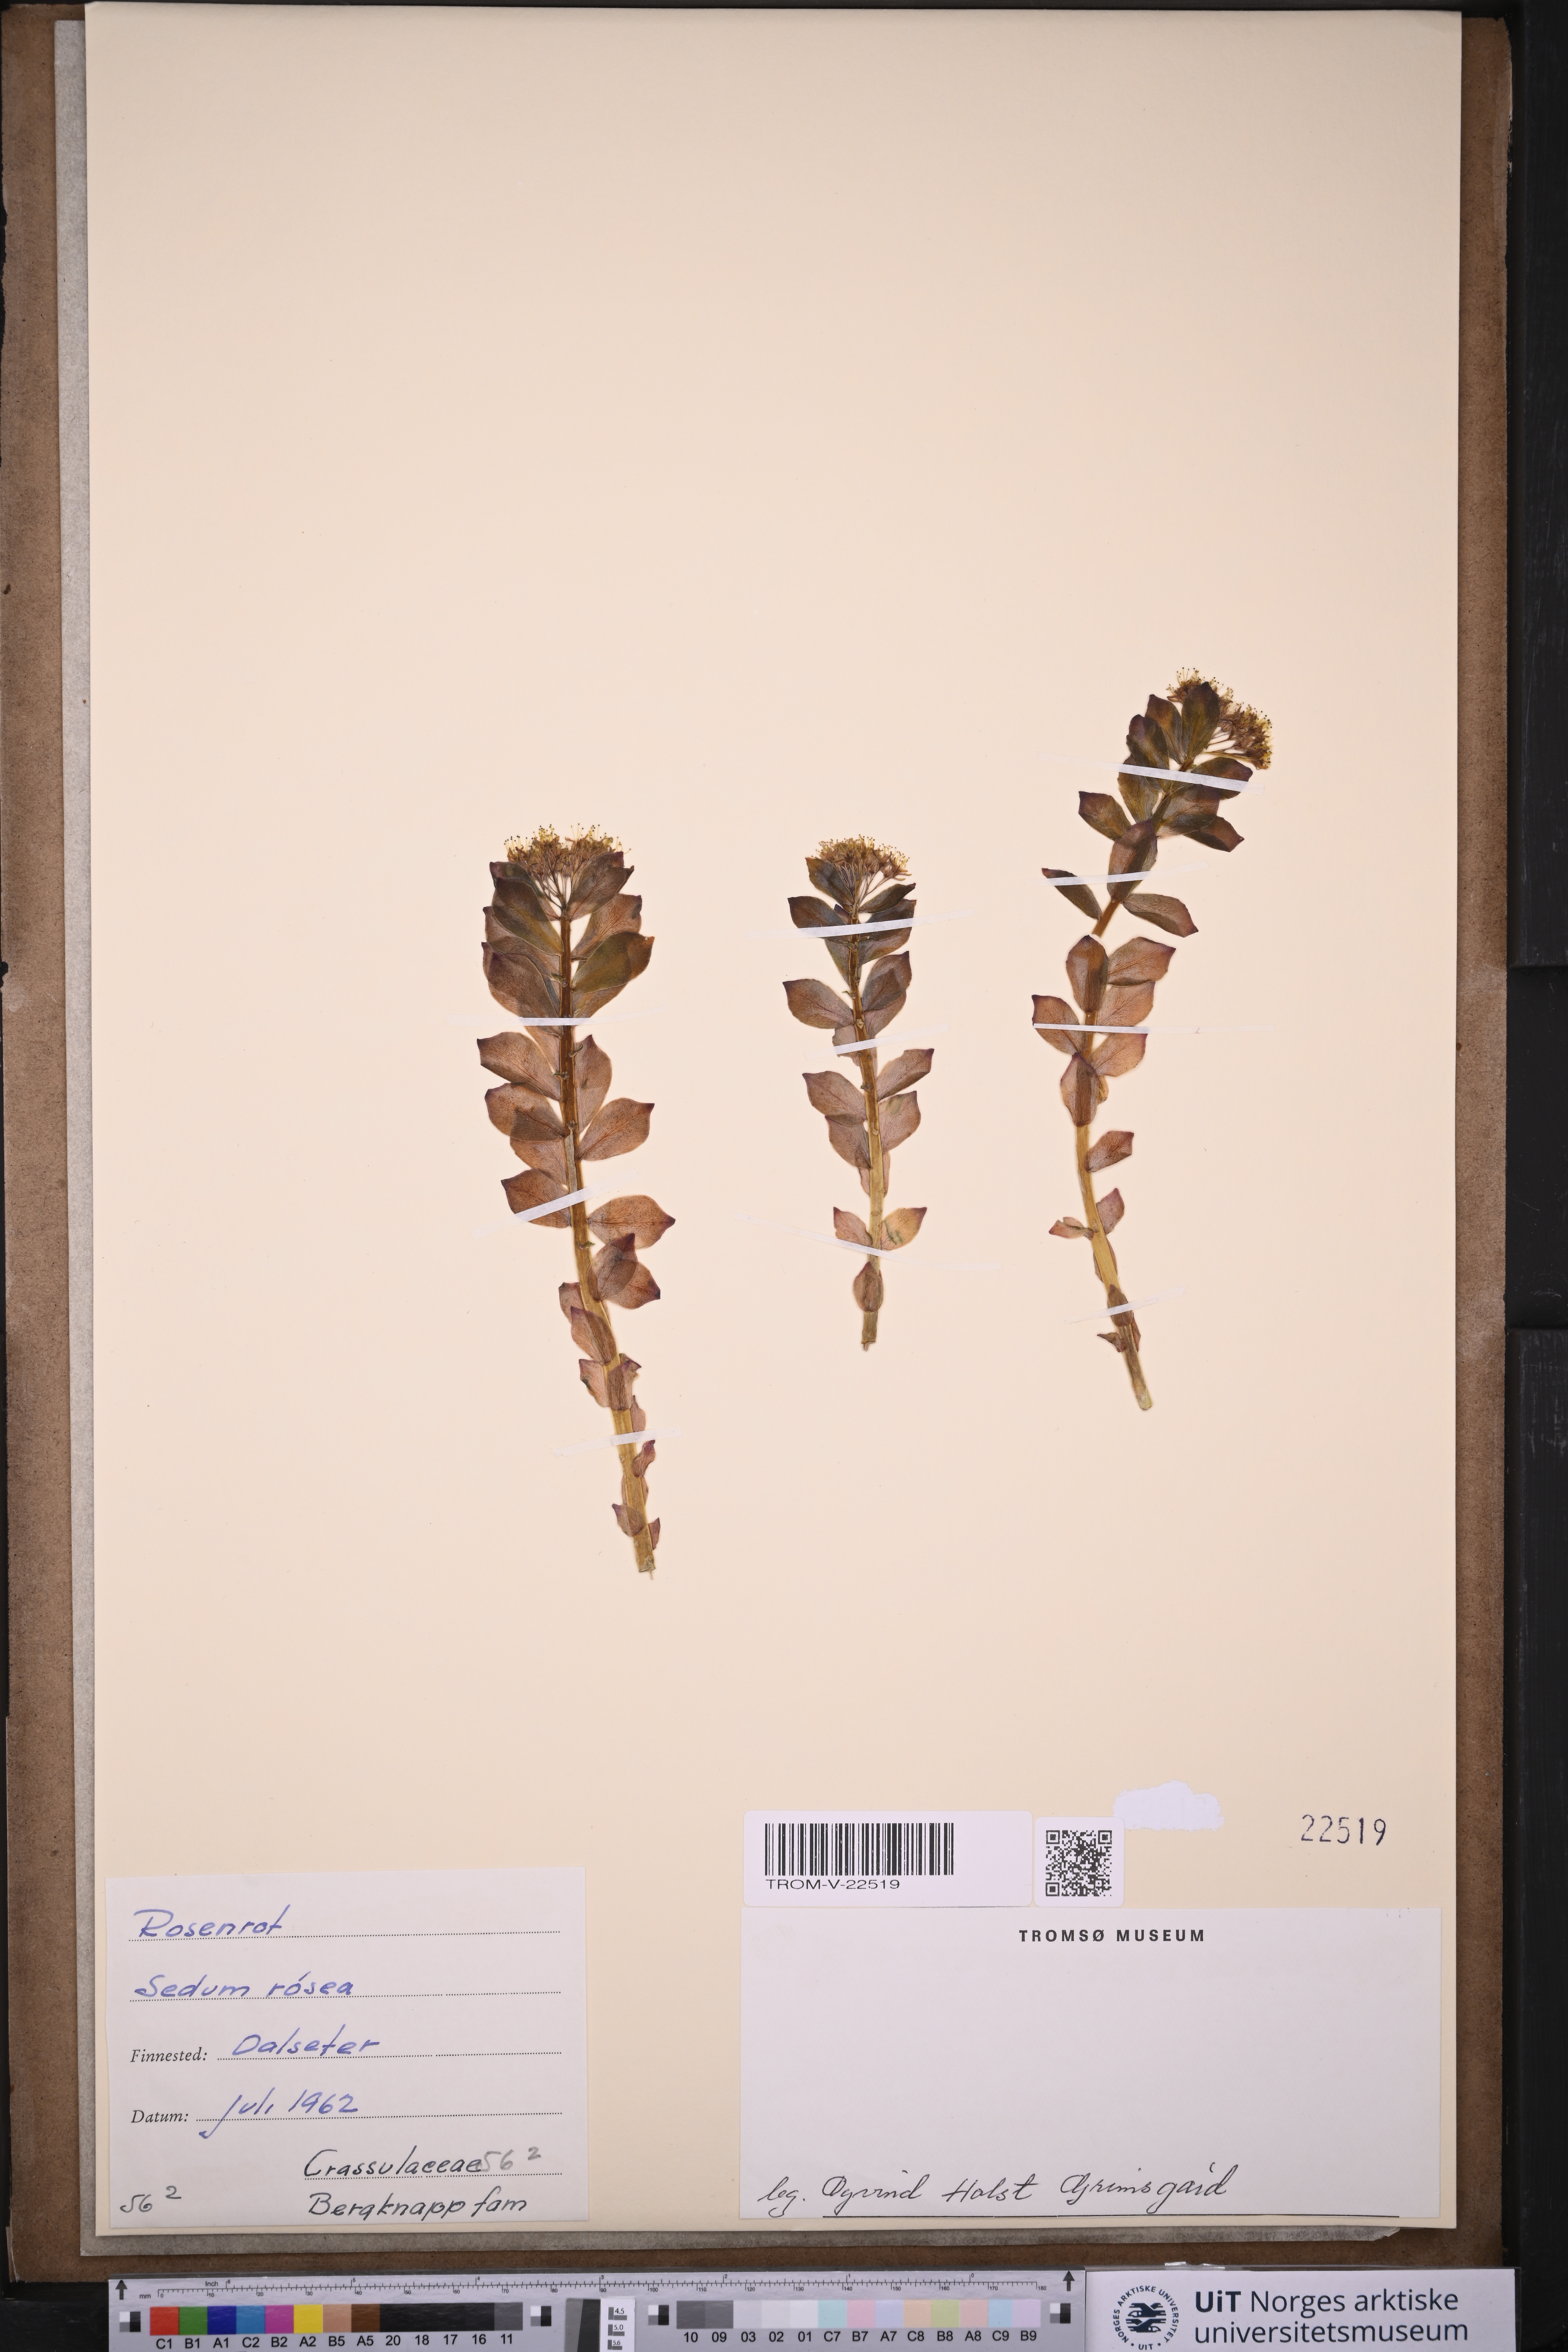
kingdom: Plantae
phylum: Tracheophyta
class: Magnoliopsida
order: Saxifragales
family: Crassulaceae
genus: Rhodiola
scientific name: Rhodiola rosea
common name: Roseroot
